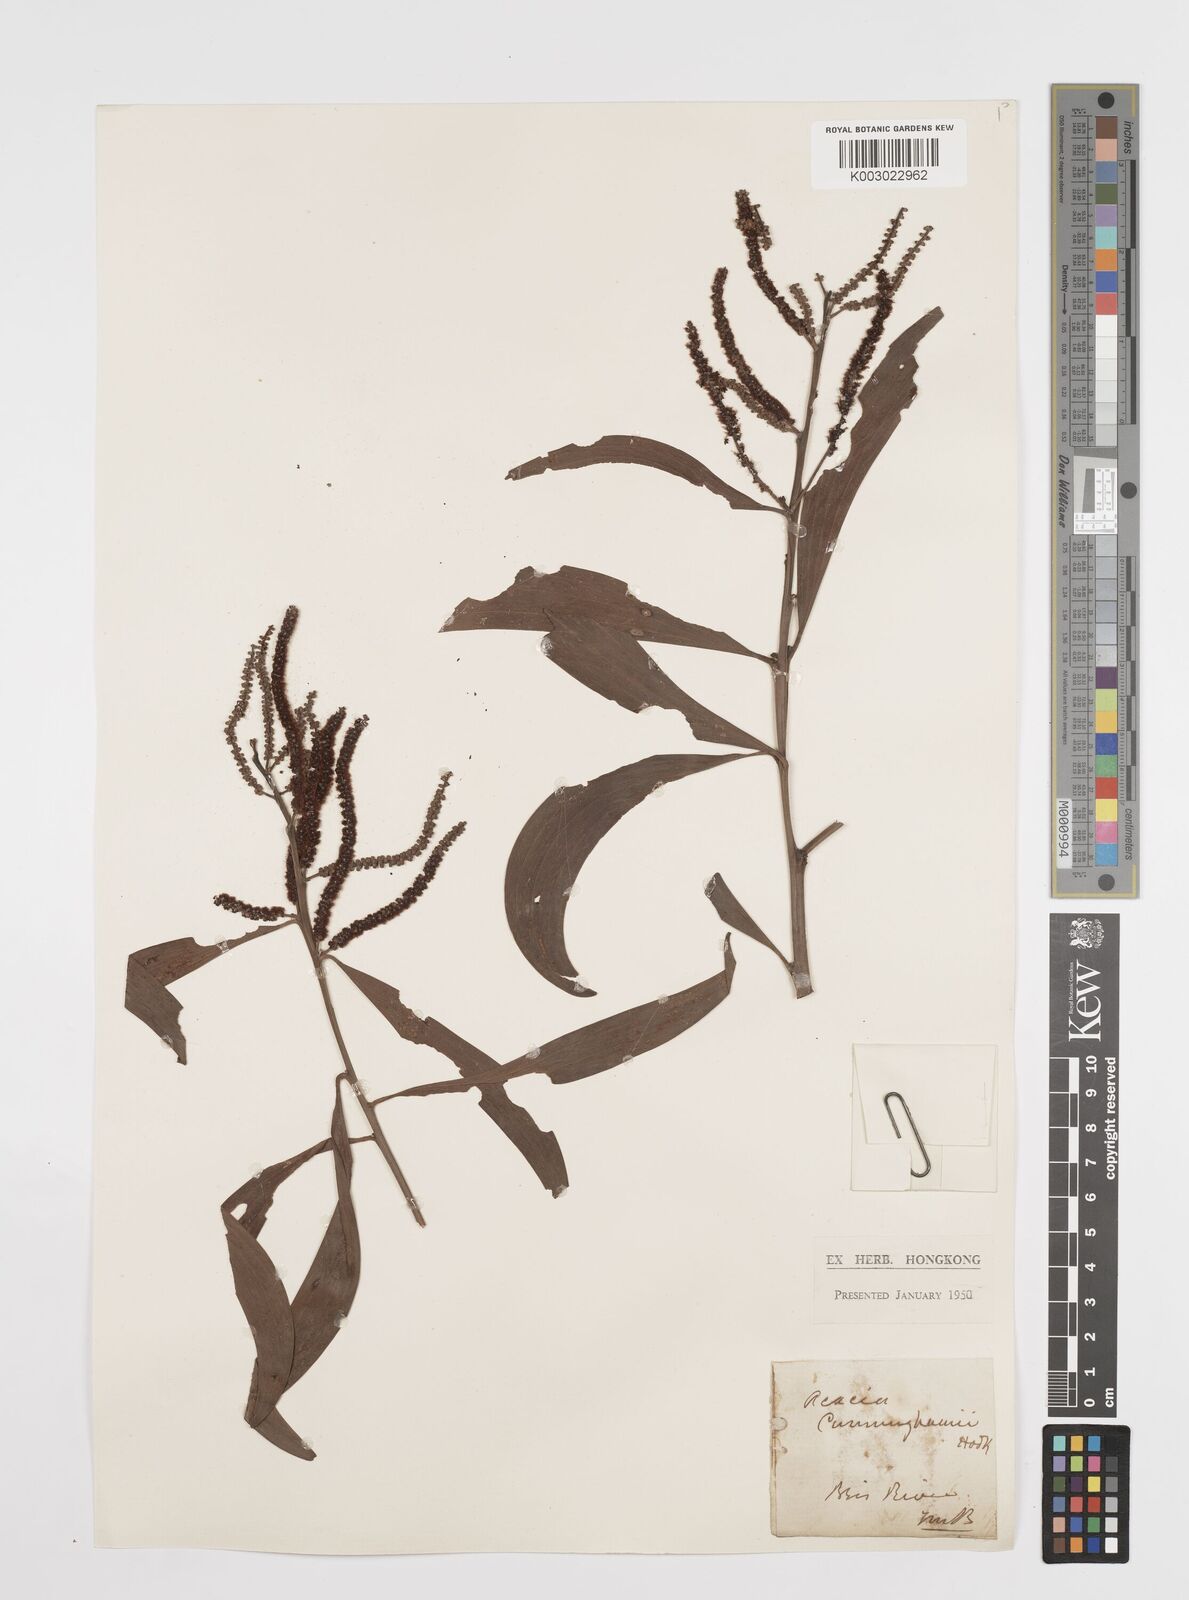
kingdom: Plantae
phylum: Tracheophyta
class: Magnoliopsida
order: Fabales
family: Fabaceae
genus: Acacia
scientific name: Acacia longispicata
